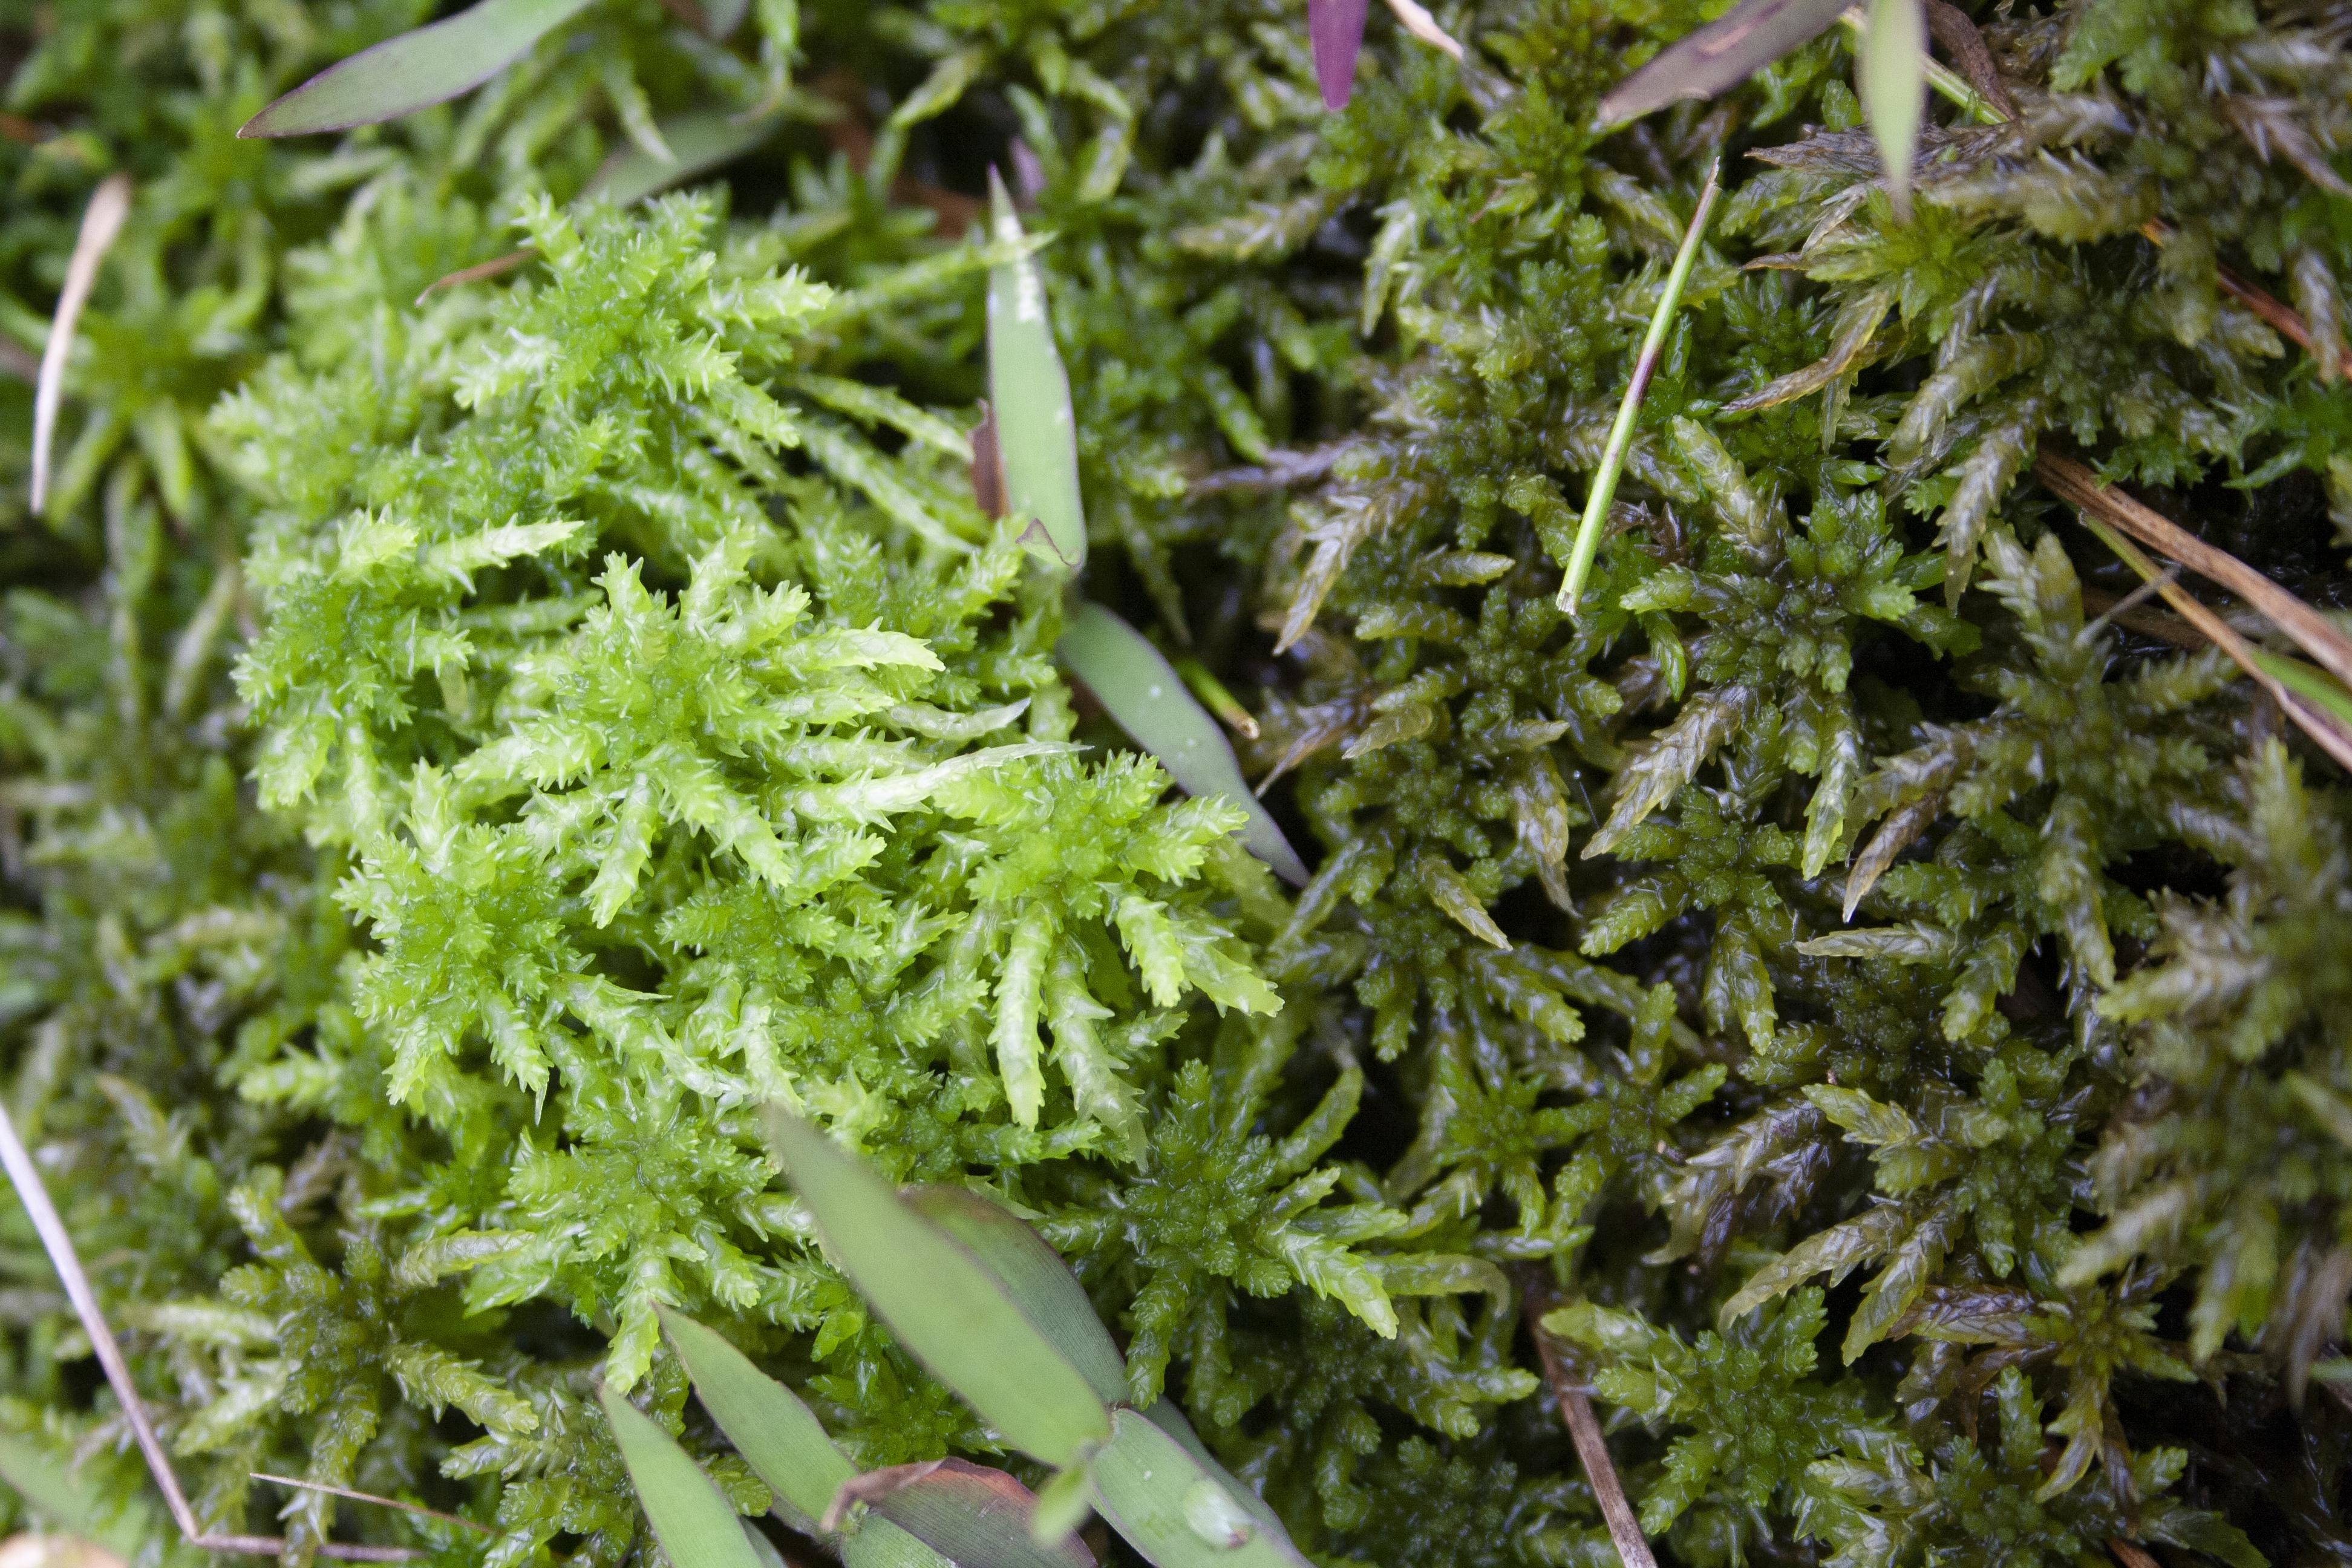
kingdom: Plantae
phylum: Bryophyta
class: Sphagnopsida
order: Sphagnales
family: Sphagnaceae
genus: Sphagnum
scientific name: Sphagnum palustre
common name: Blunt-leaved bog-moss
